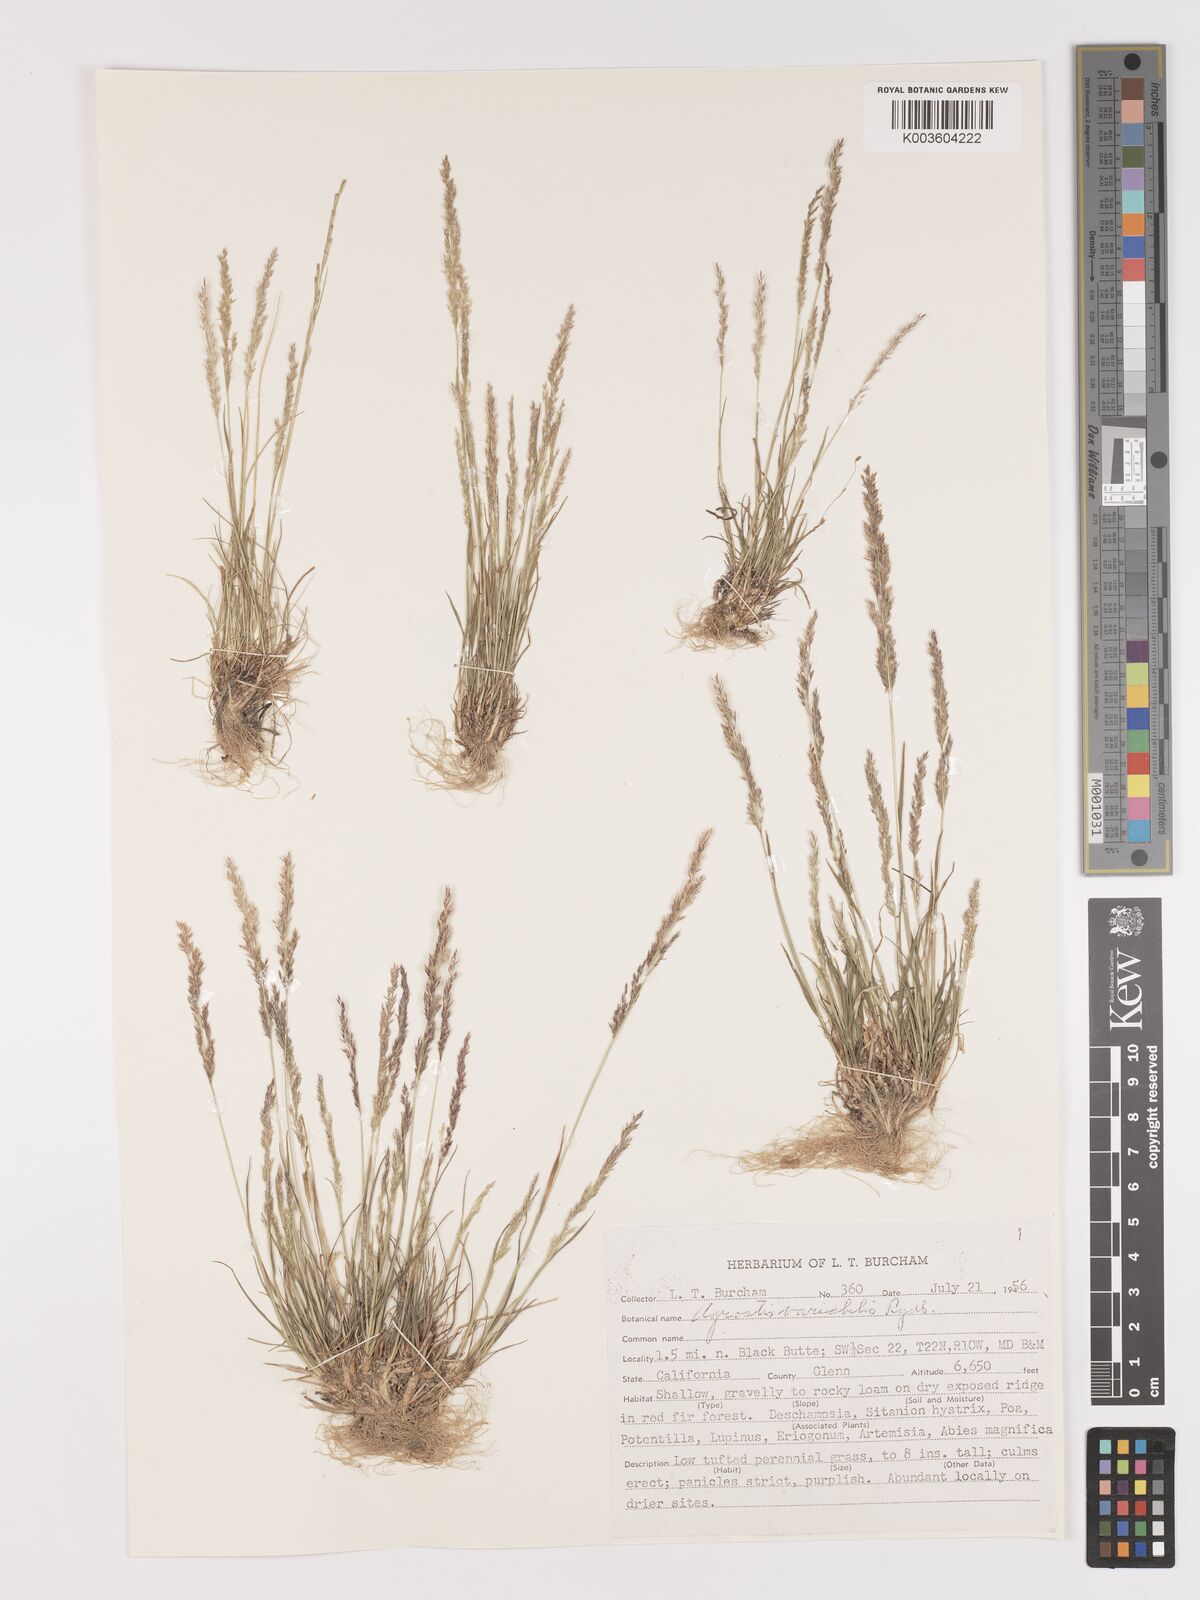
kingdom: Plantae
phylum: Tracheophyta
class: Liliopsida
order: Poales
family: Poaceae
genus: Agrostis
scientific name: Agrostis variabilis
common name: Alpine bent
